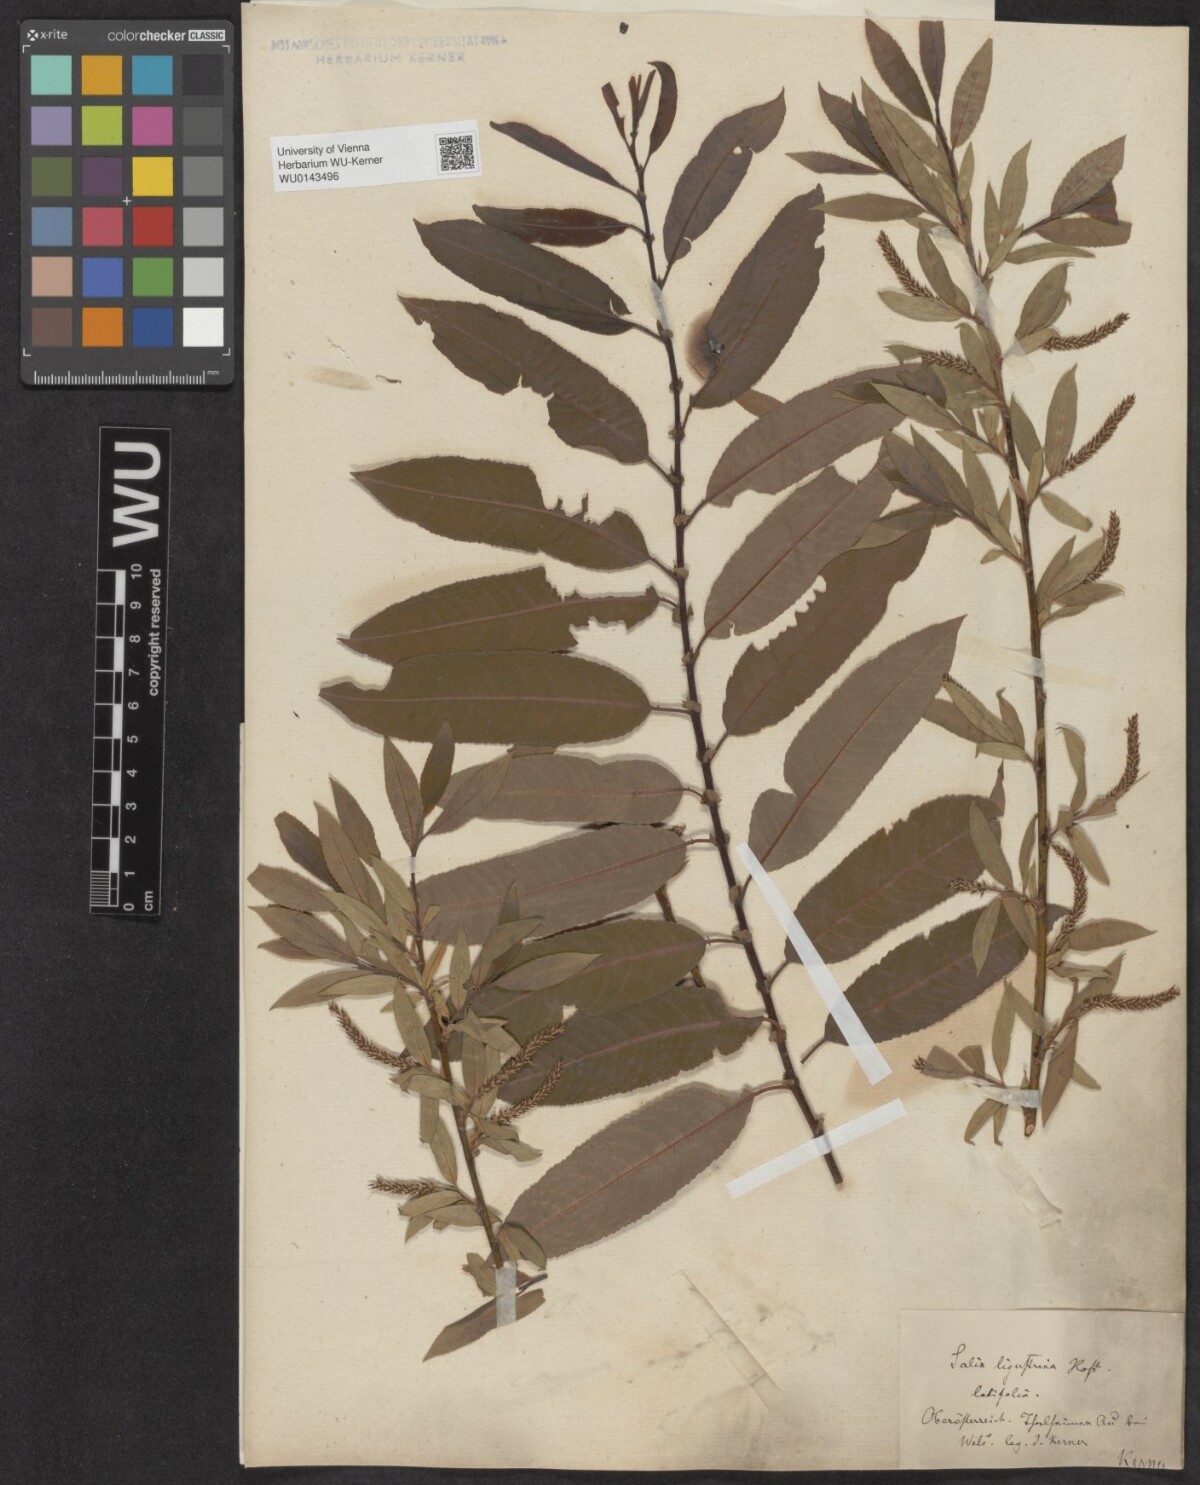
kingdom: Plantae
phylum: Tracheophyta
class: Magnoliopsida
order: Malpighiales
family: Salicaceae
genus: Salix
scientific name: Salix triandra
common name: Almond willow
